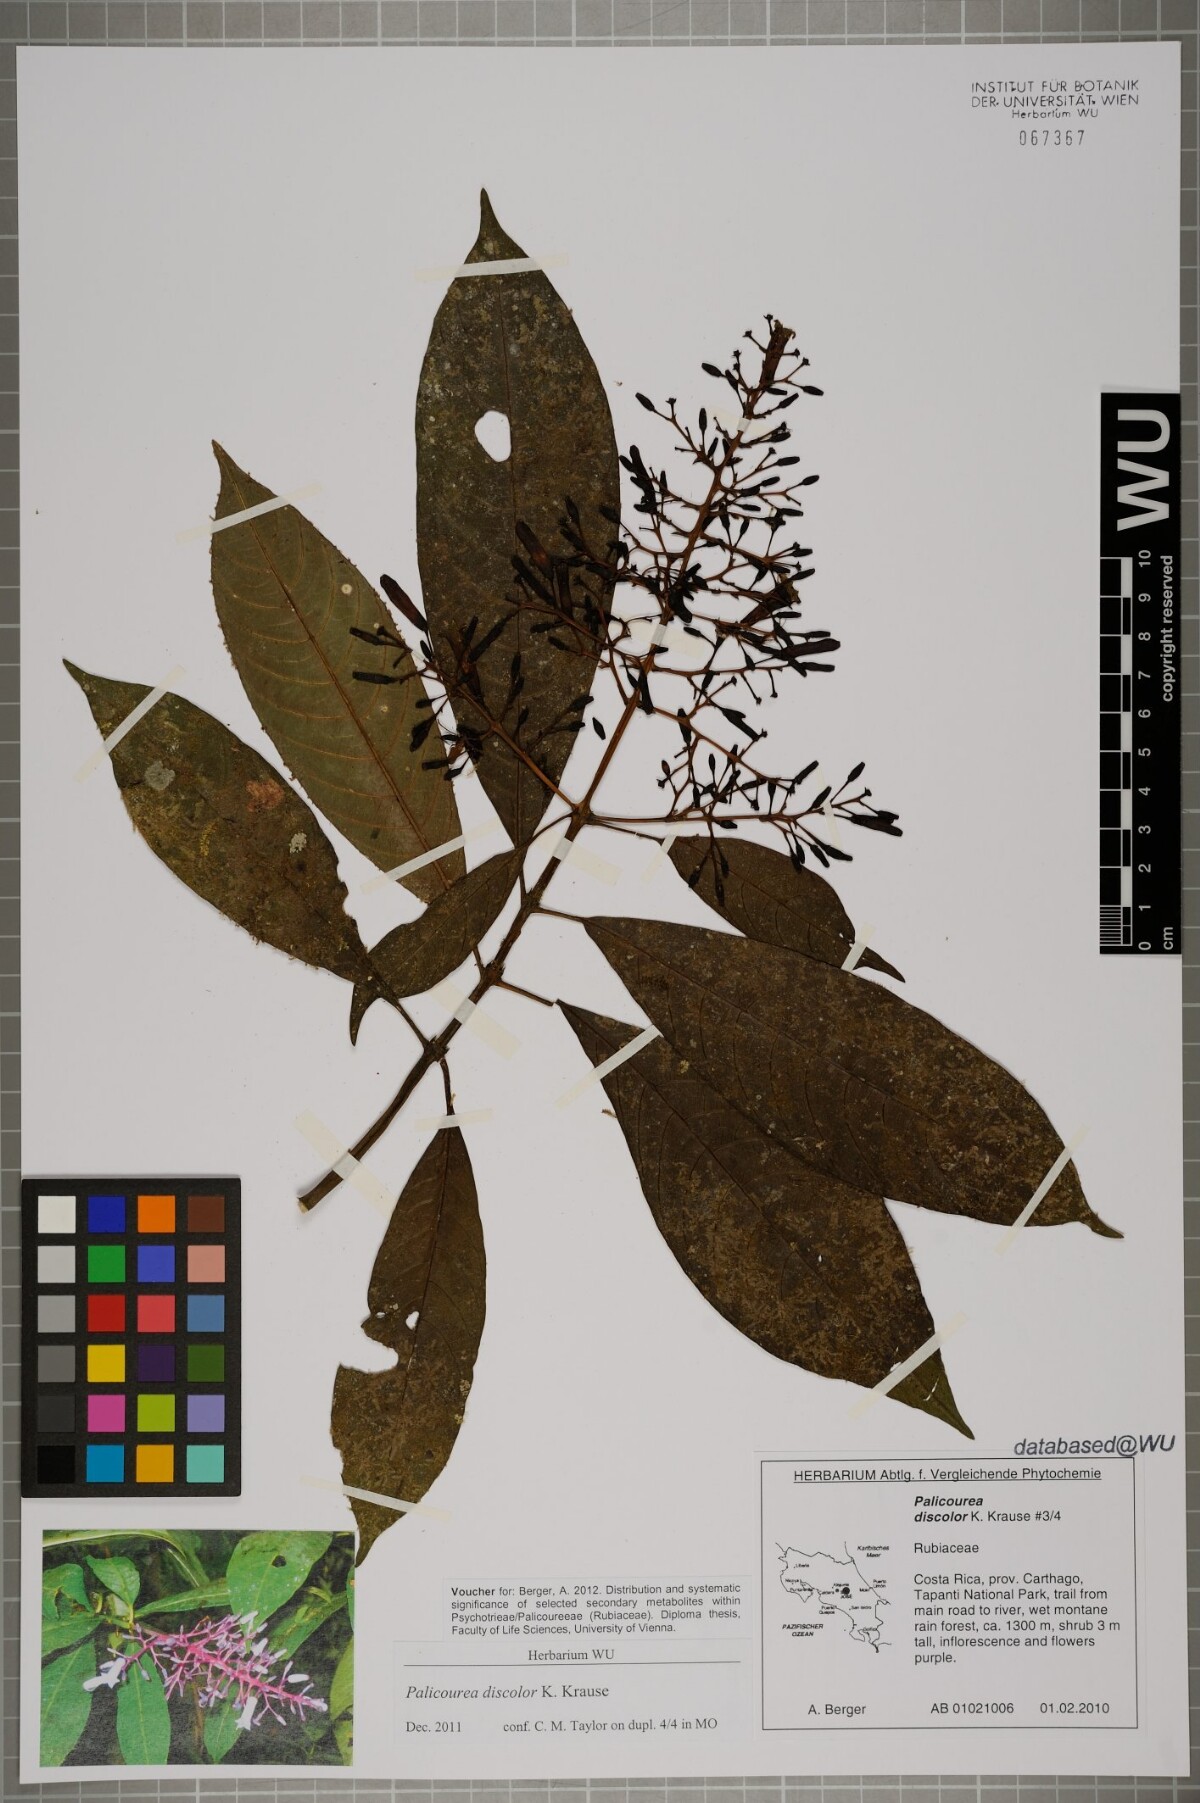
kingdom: Plantae
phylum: Tracheophyta
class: Magnoliopsida
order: Gentianales
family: Rubiaceae
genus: Palicourea
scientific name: Palicourea macrosepala
